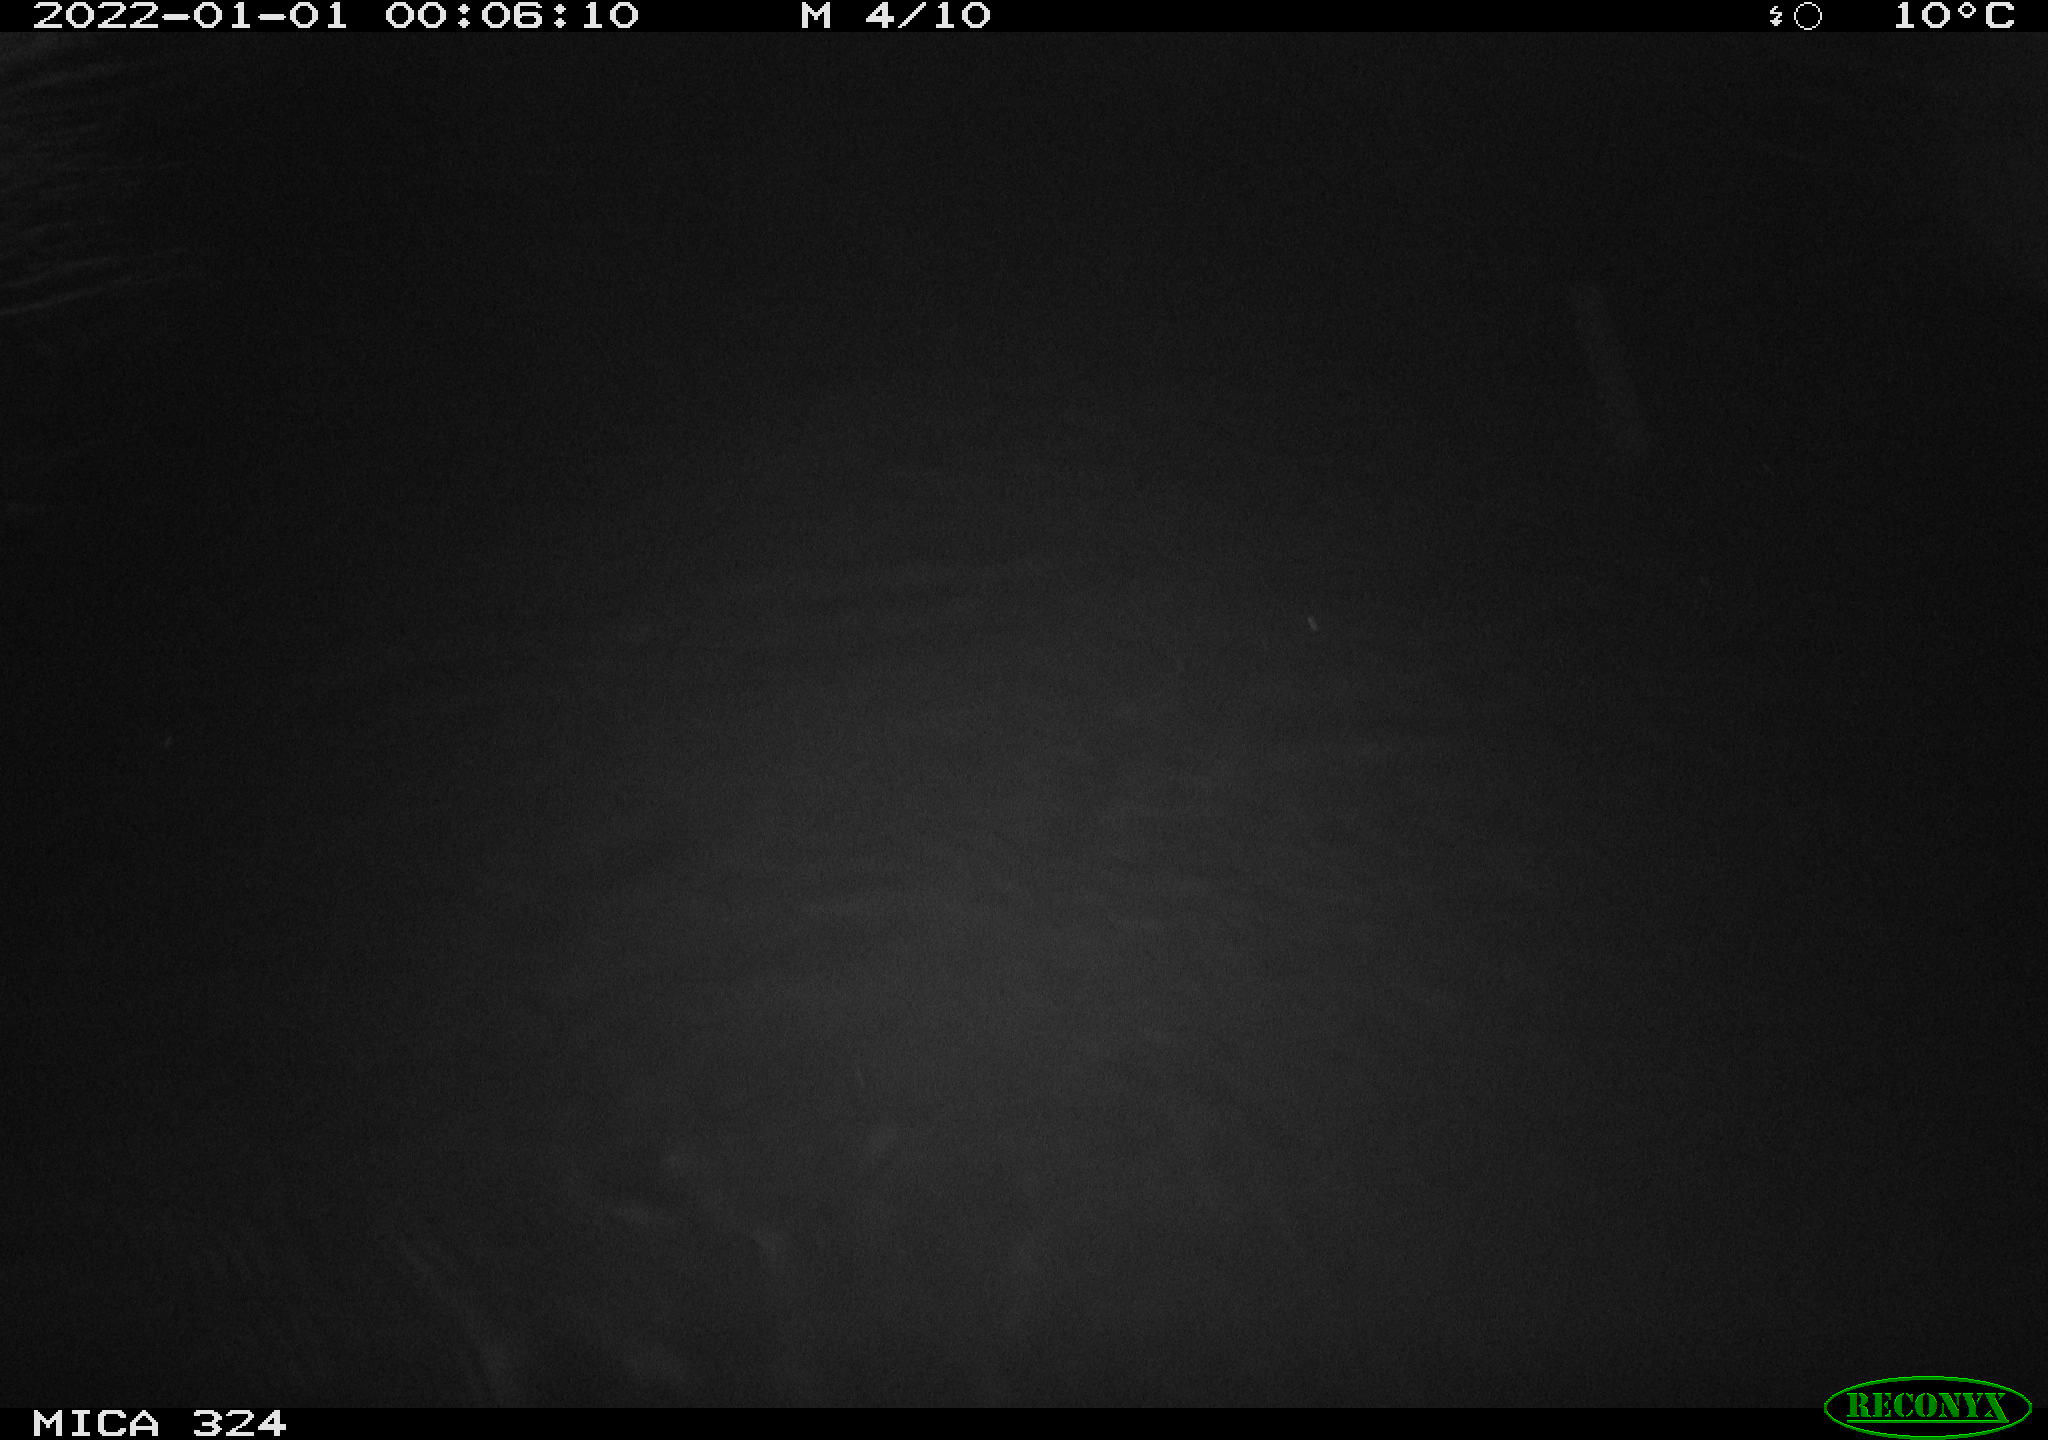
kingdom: Animalia
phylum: Chordata
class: Mammalia
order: Rodentia
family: Myocastoridae
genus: Myocastor
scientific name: Myocastor coypus
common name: Coypu
